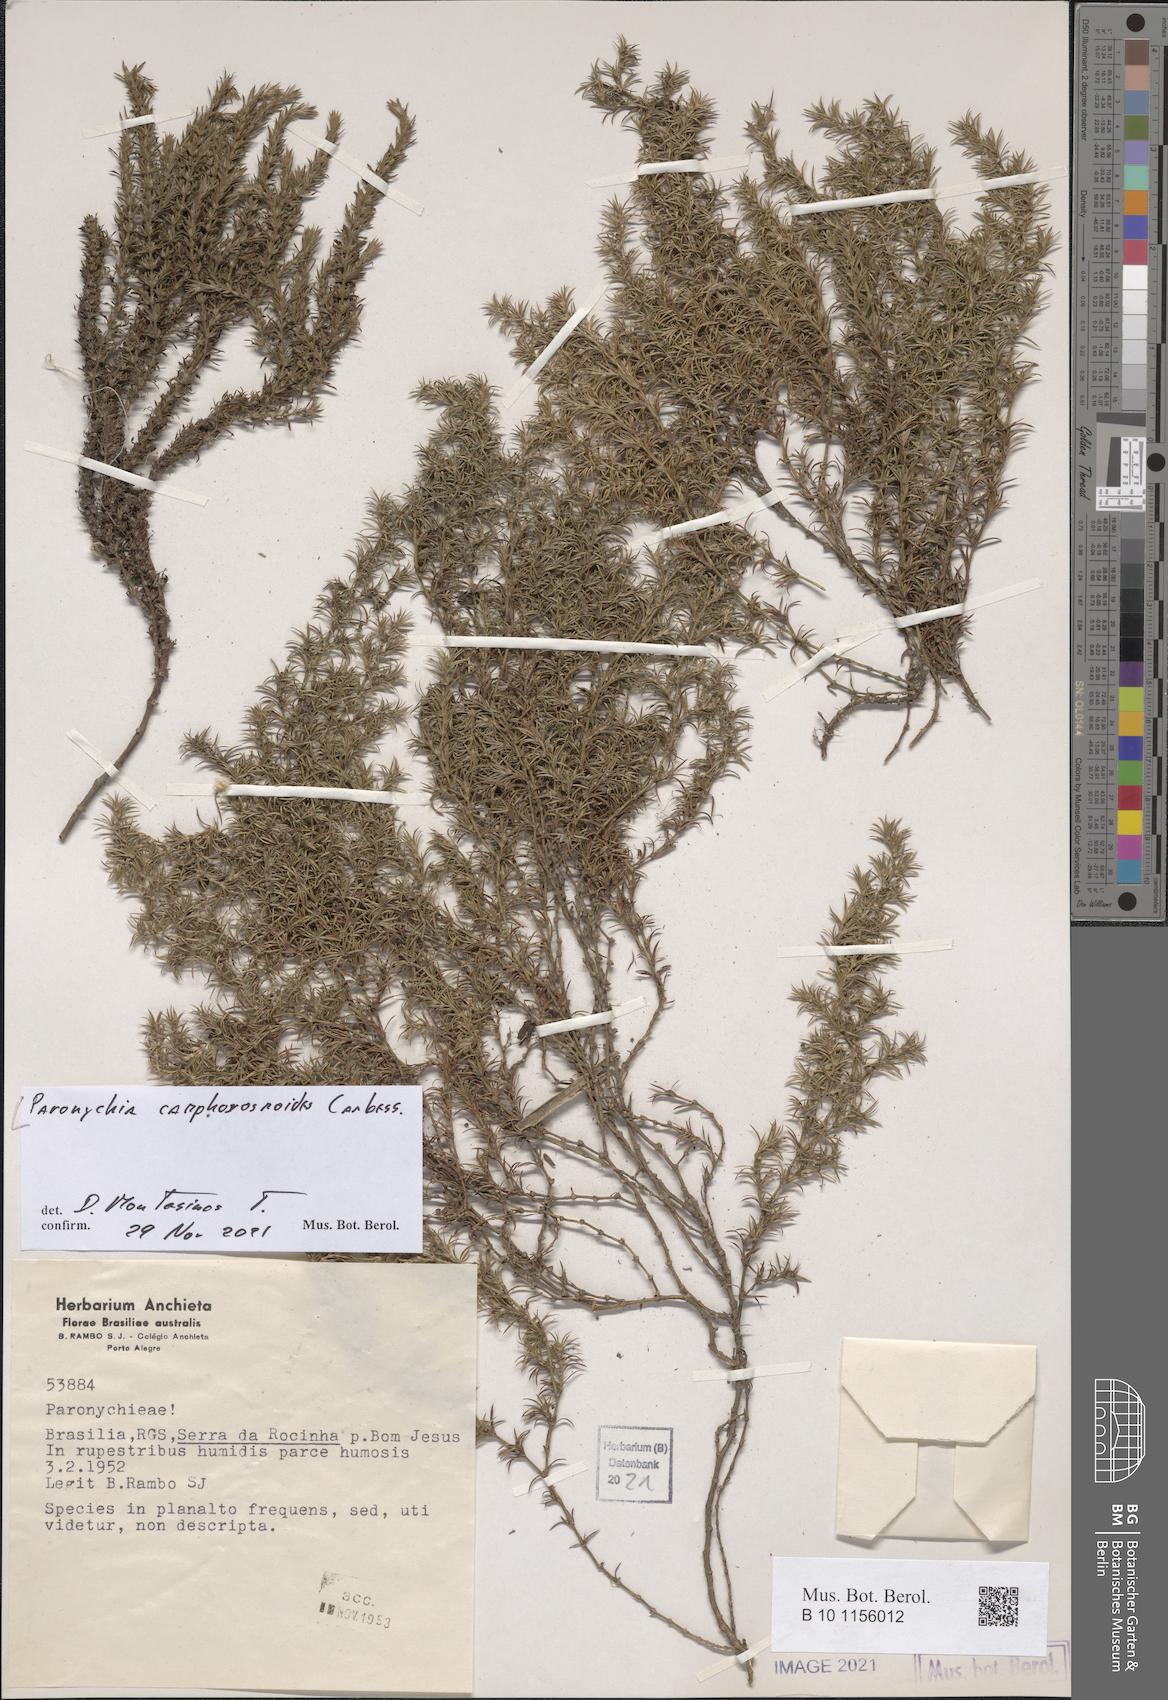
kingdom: Plantae
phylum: Tracheophyta
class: Magnoliopsida
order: Caryophyllales
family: Caryophyllaceae
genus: Cardionema
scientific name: Cardionema camphorosmoides
